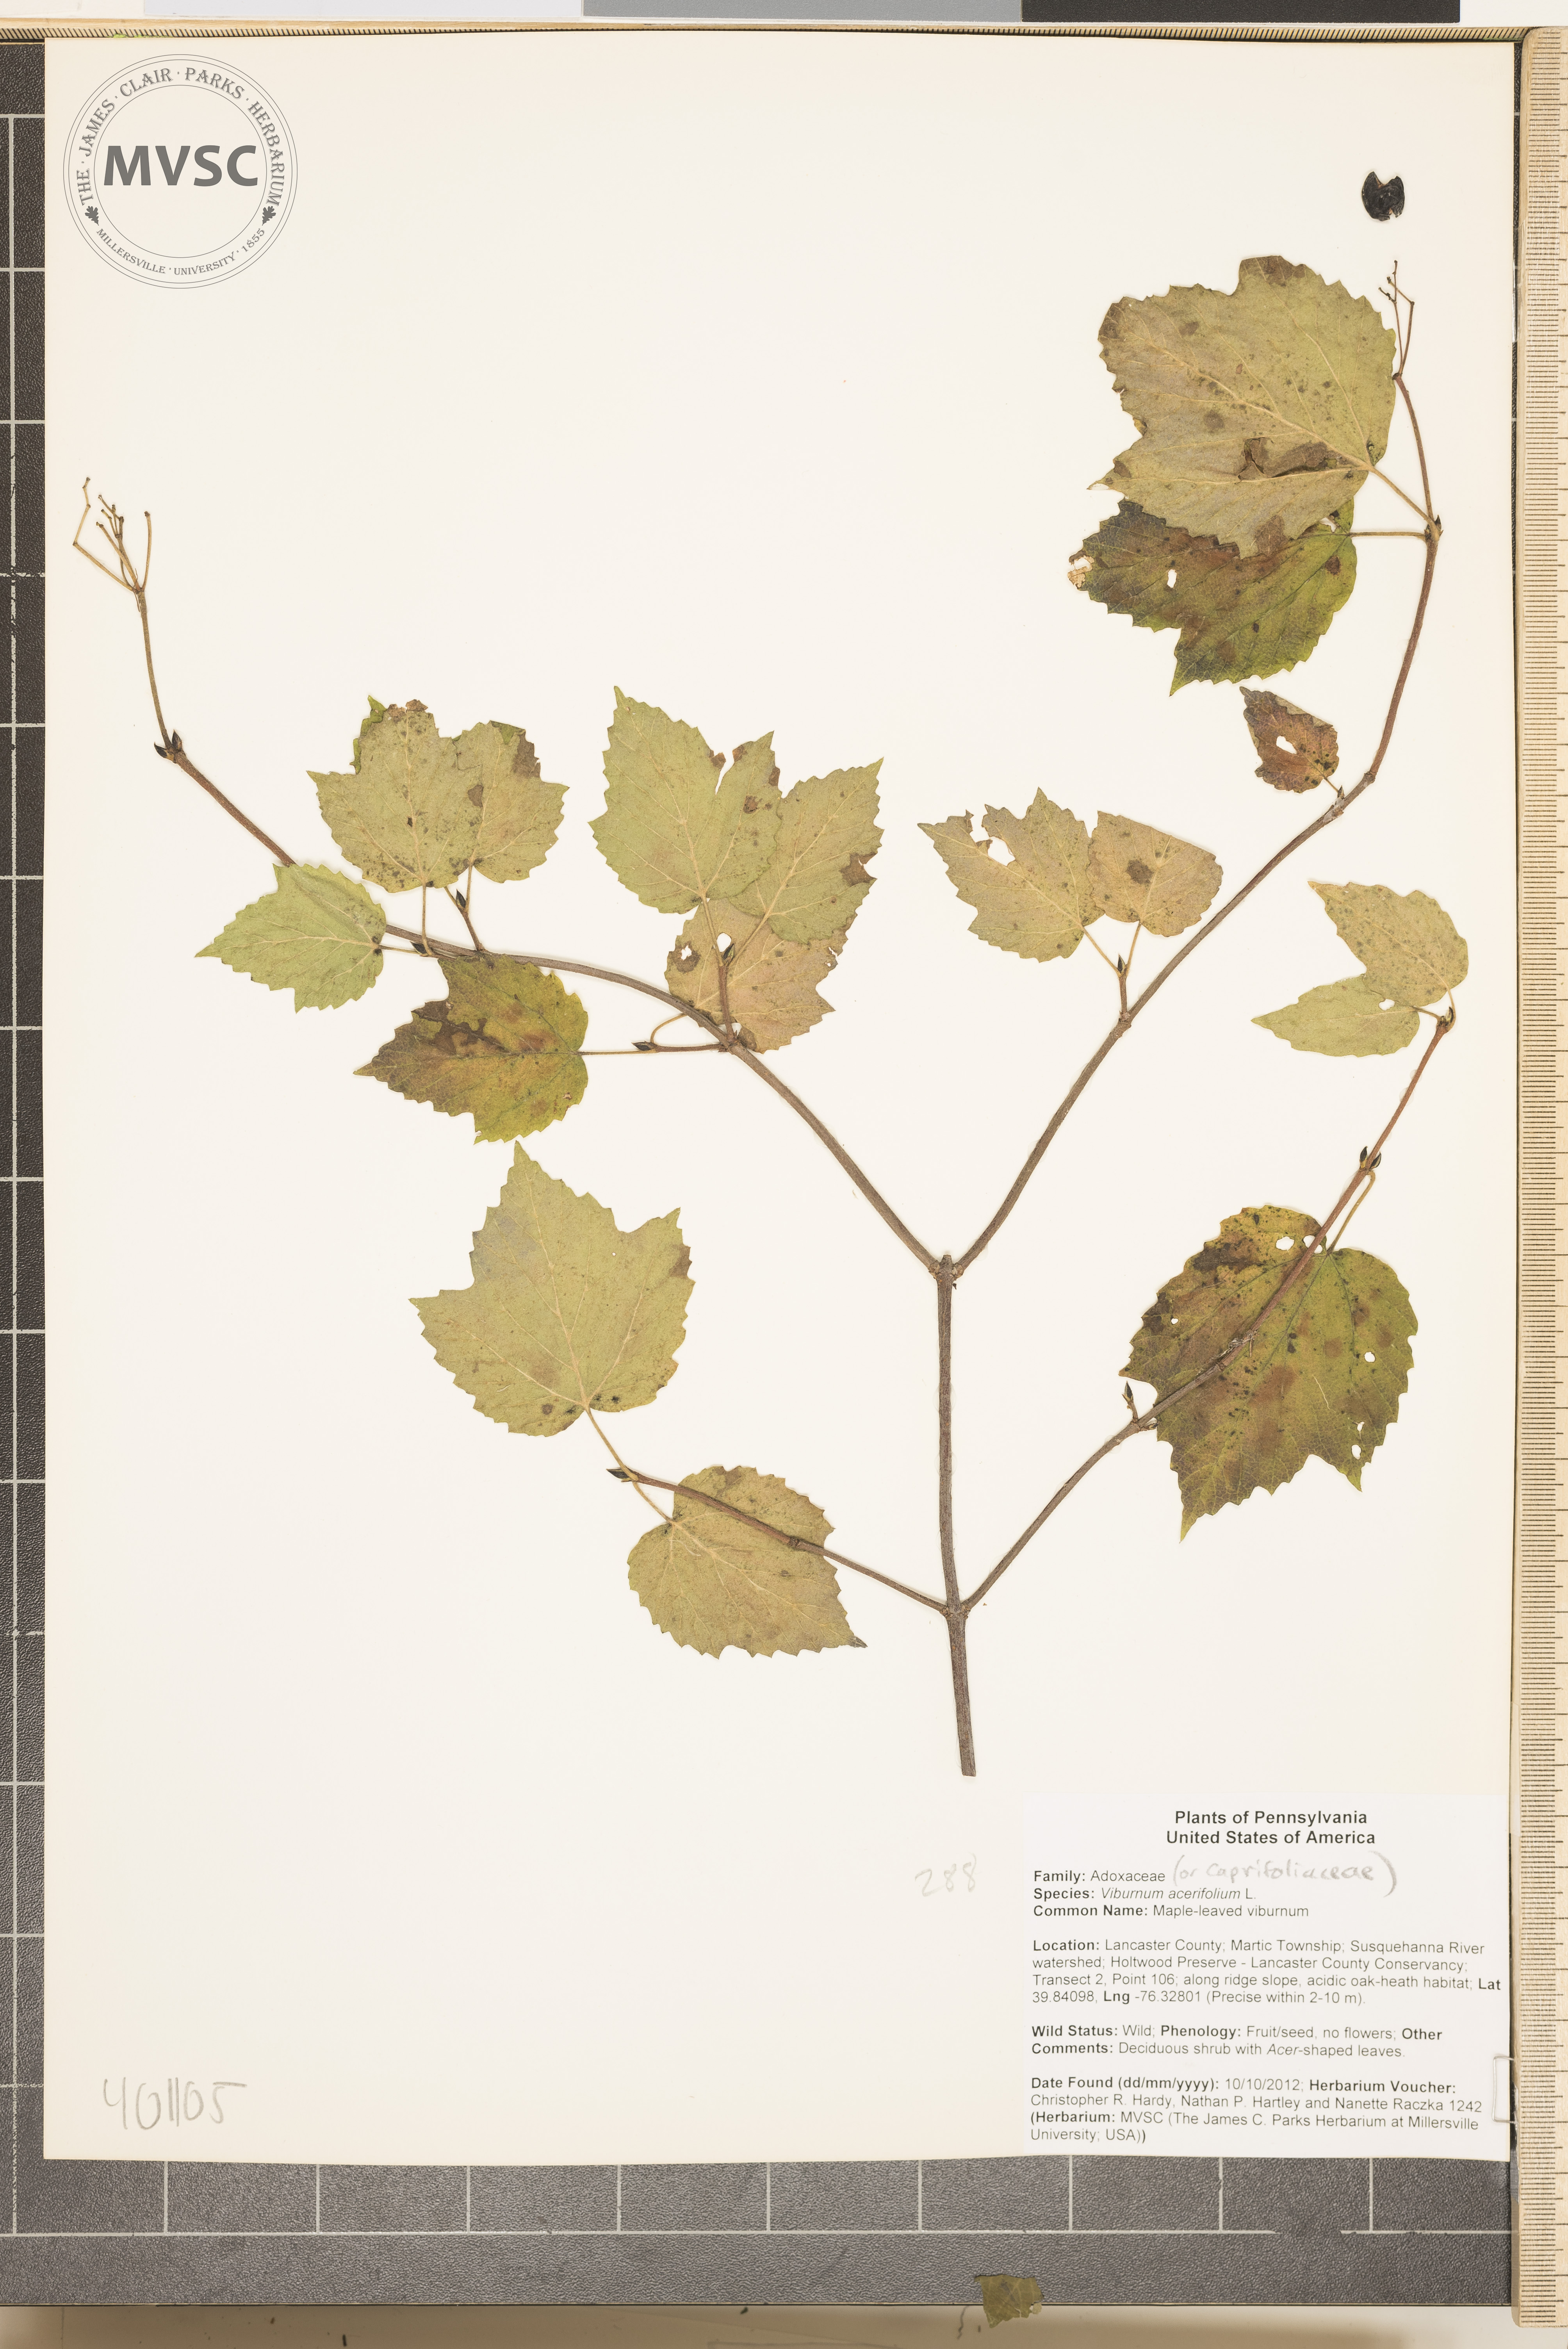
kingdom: Plantae
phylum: Tracheophyta
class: Magnoliopsida
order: Dipsacales
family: Viburnaceae
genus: Viburnum
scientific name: Viburnum acerifolium
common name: Maple-leaved viburnum
